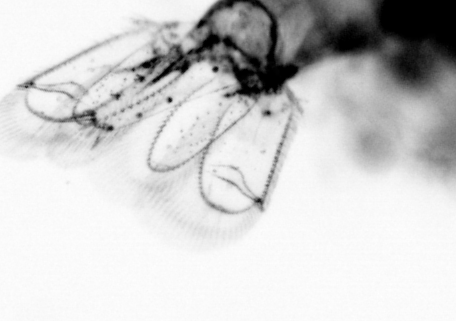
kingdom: Animalia
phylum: Arthropoda
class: Copepoda
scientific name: Copepoda
